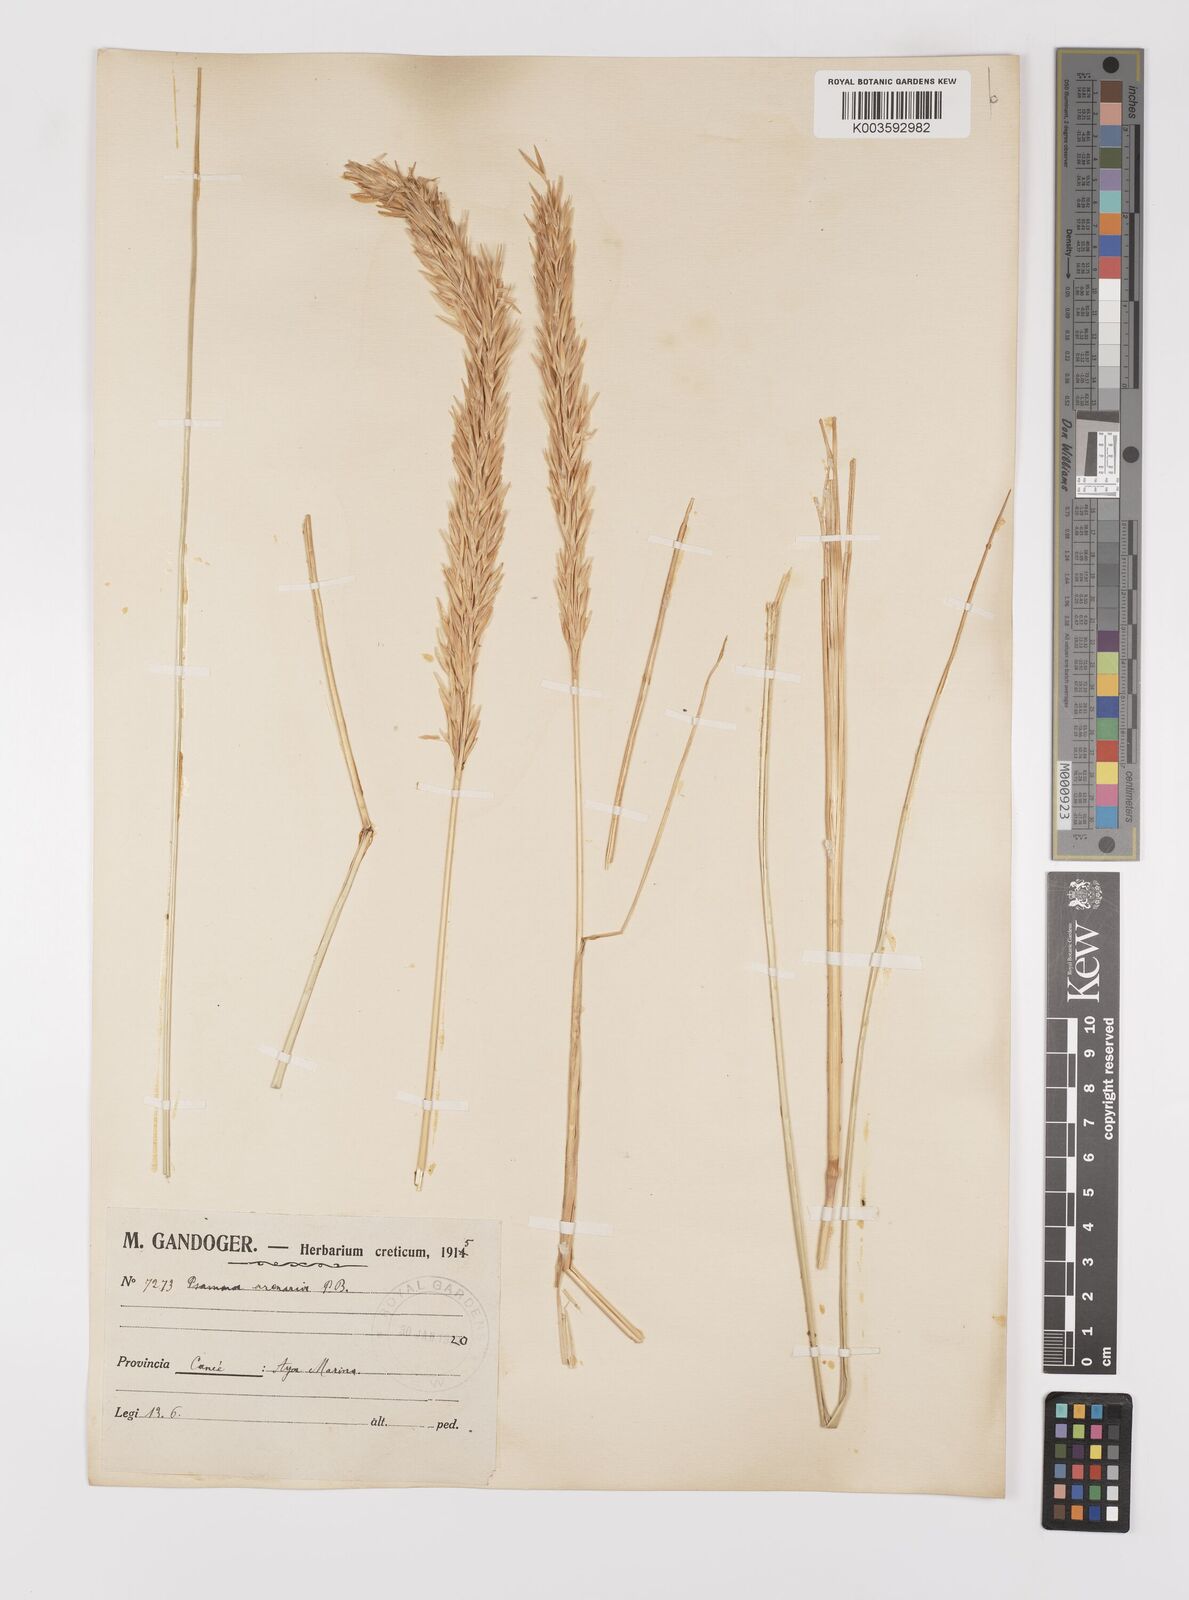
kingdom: Plantae
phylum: Tracheophyta
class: Liliopsida
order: Poales
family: Poaceae
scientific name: Poaceae
